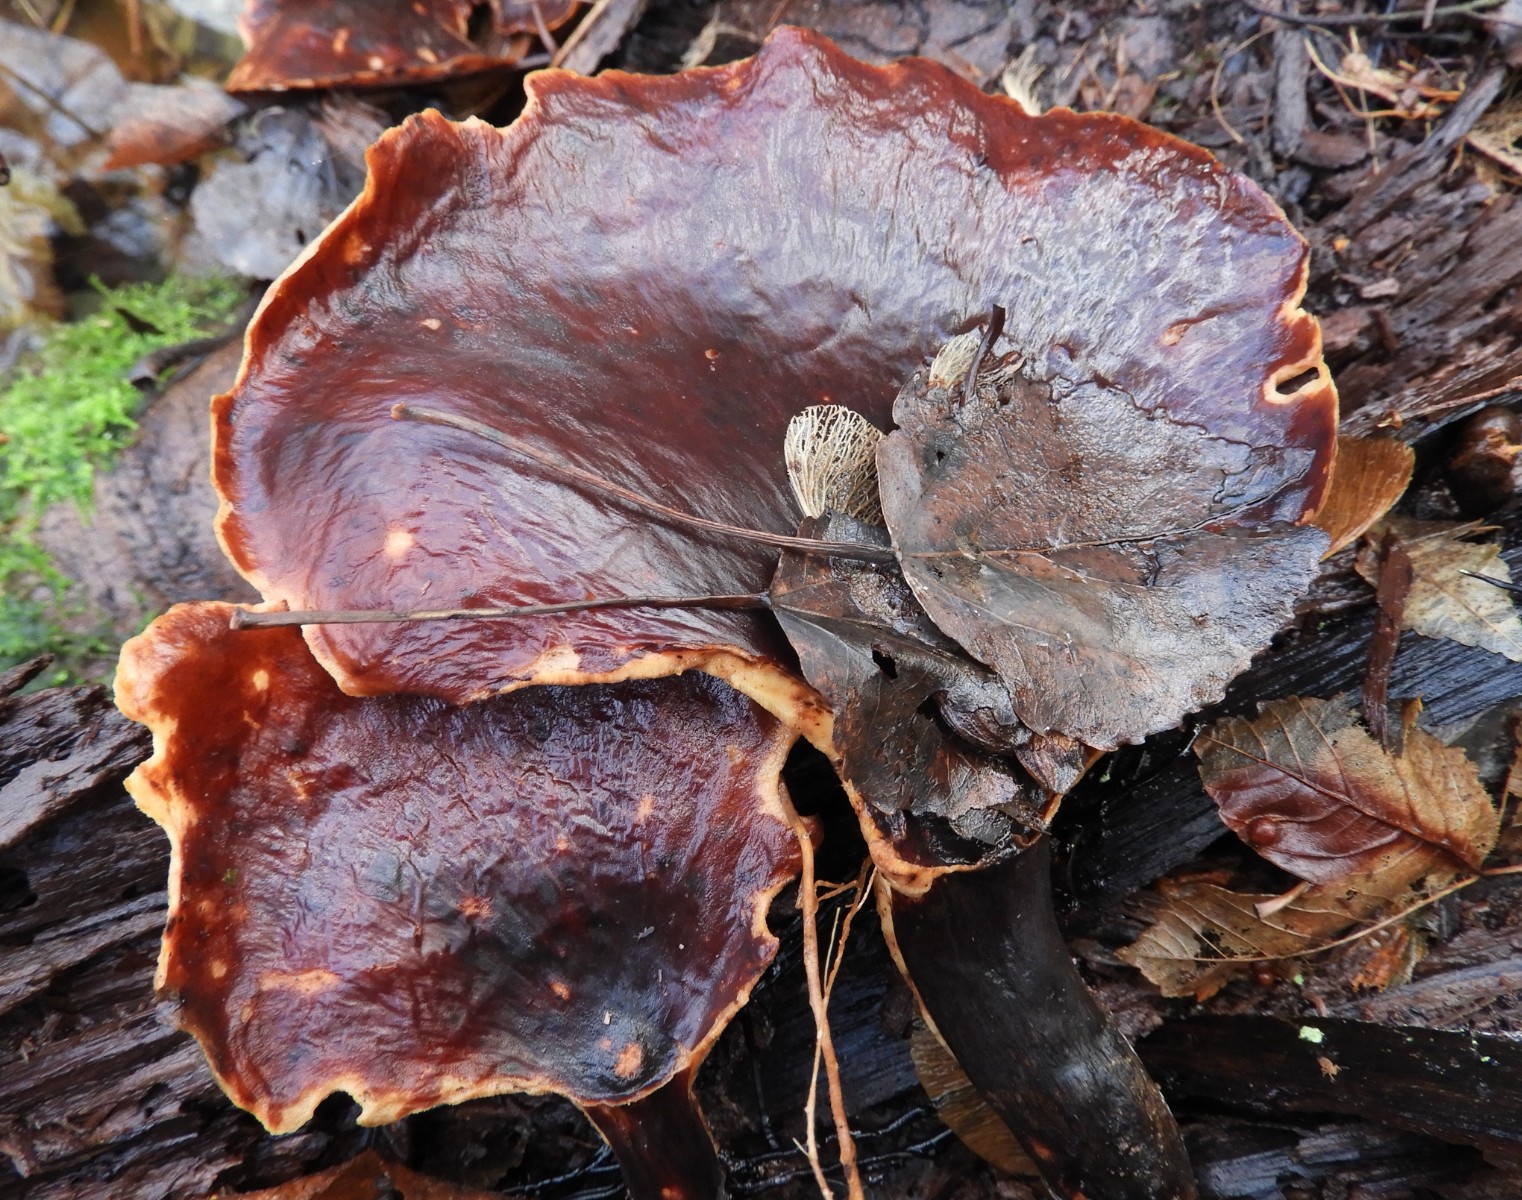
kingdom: Fungi
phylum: Basidiomycota
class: Agaricomycetes
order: Polyporales
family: Polyporaceae
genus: Picipes
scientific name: Picipes badius
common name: kastaniebrun stilkporesvamp
